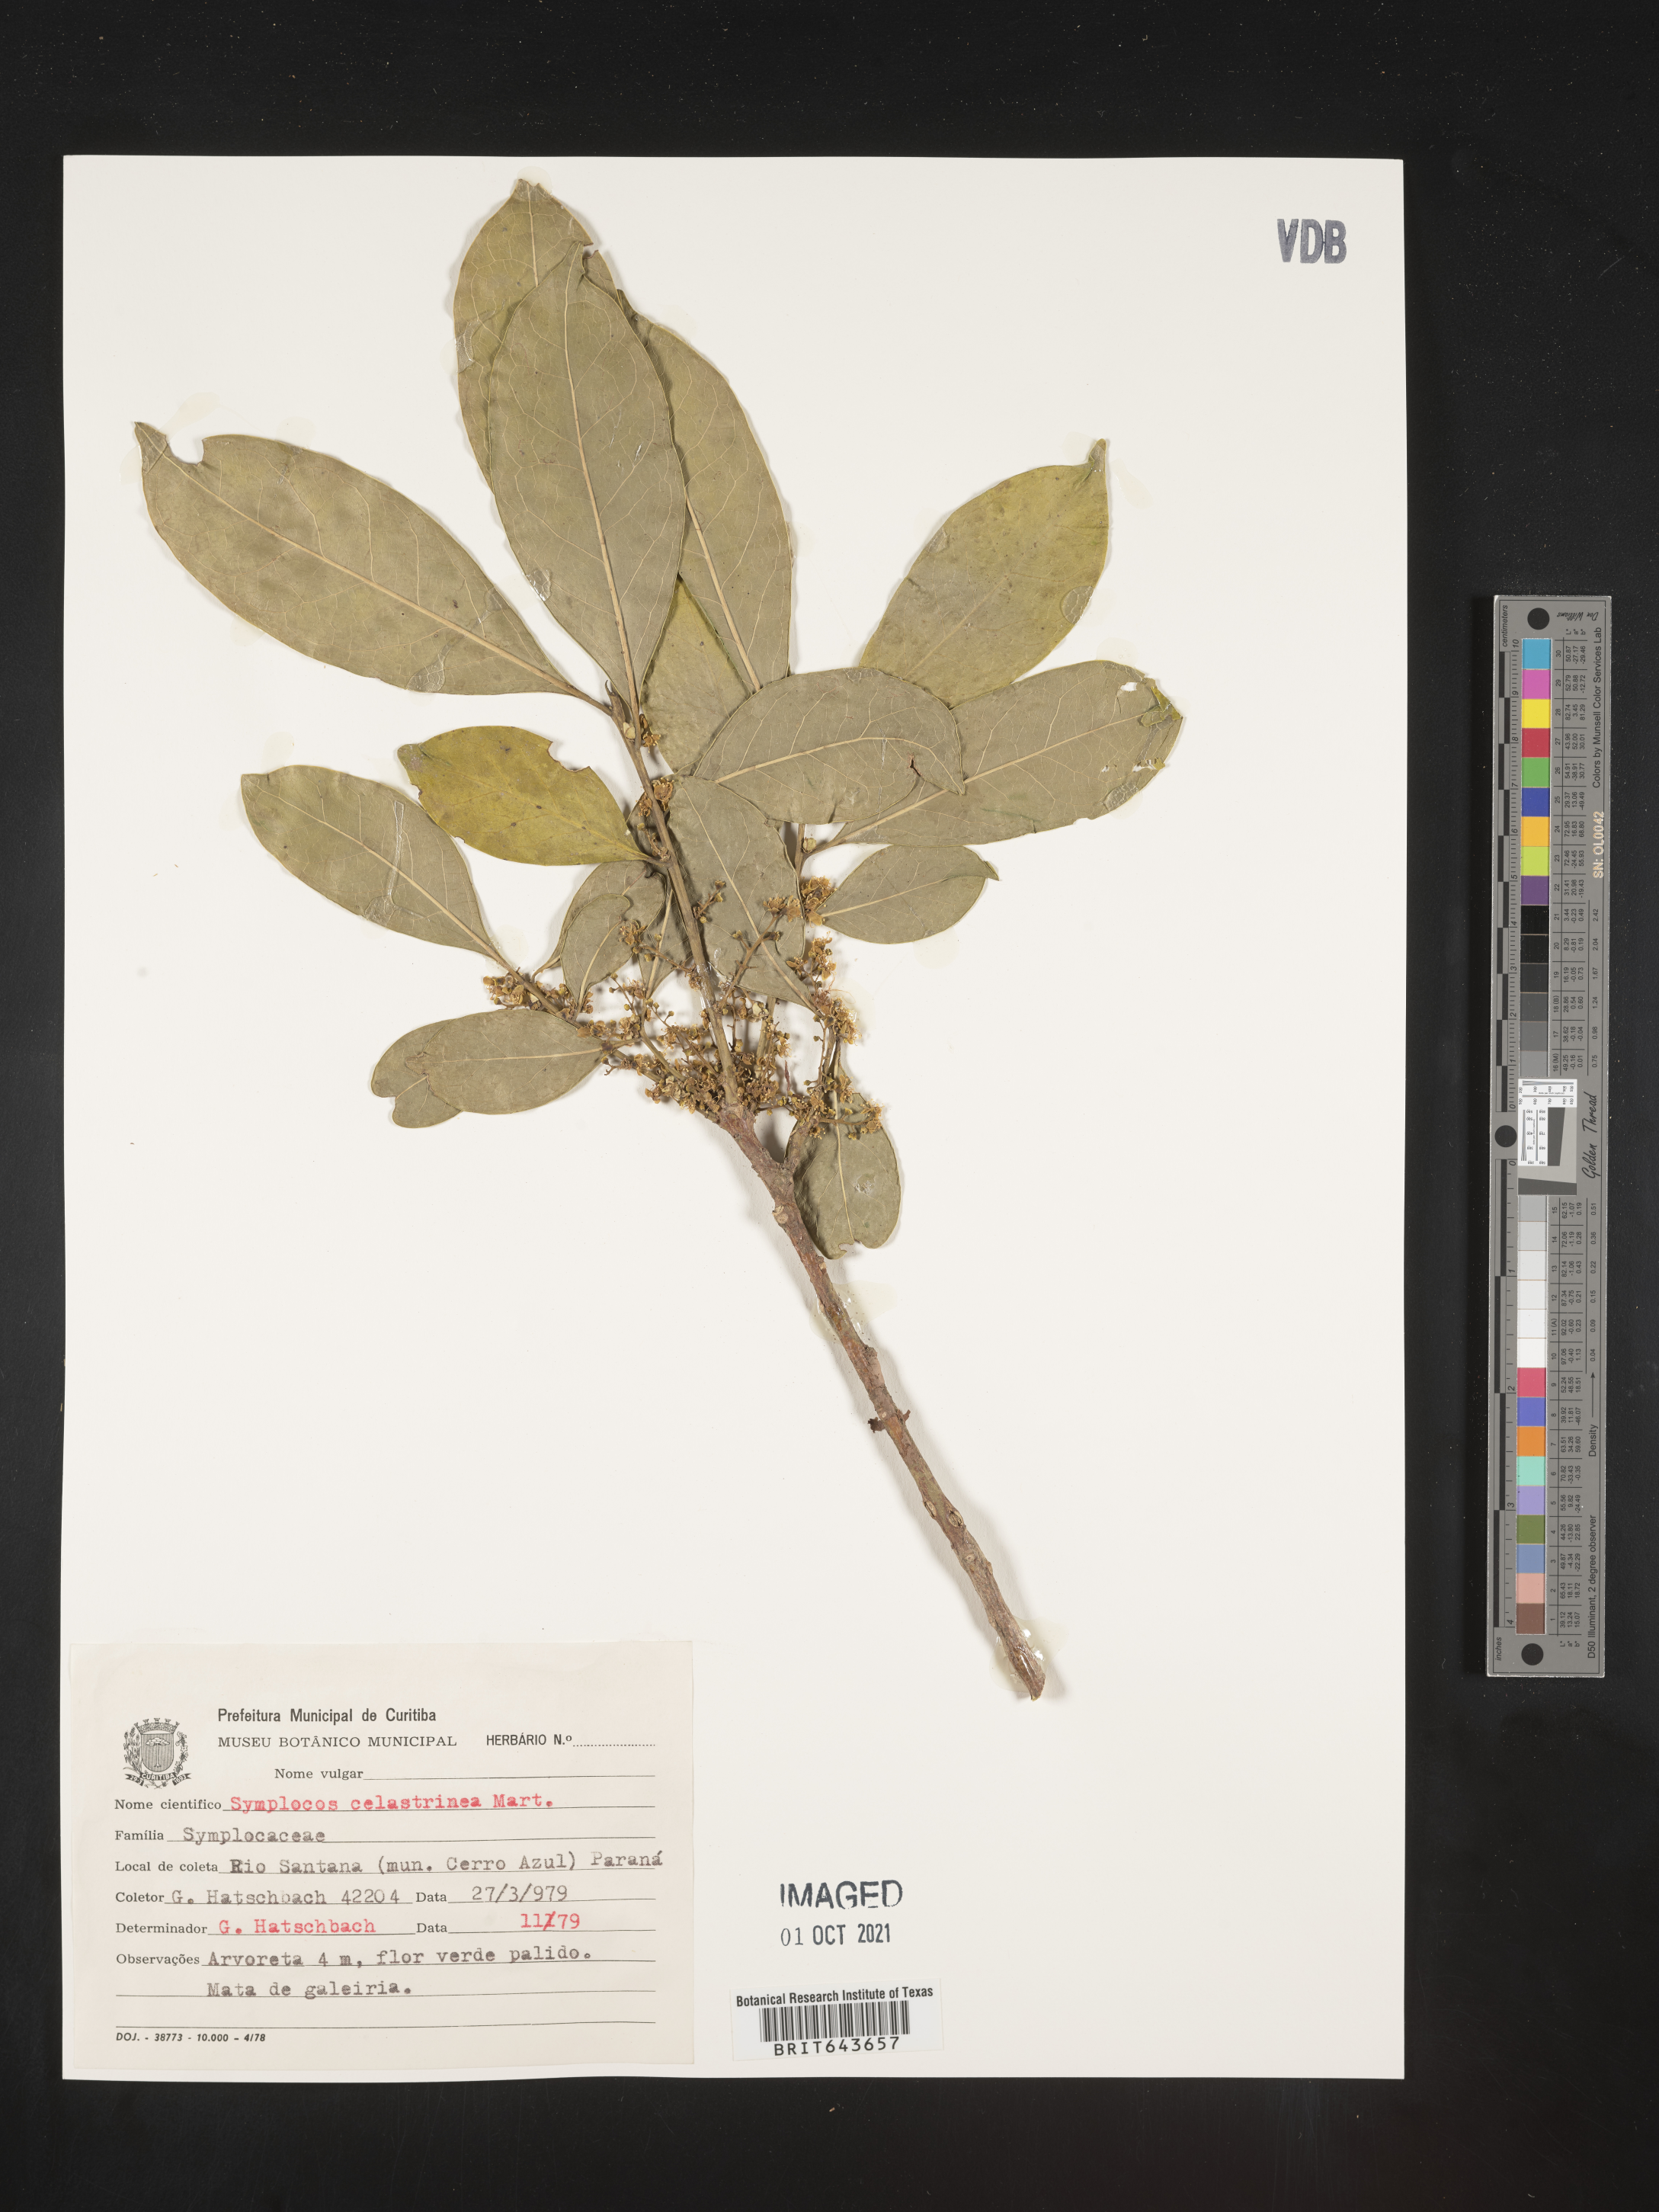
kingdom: Plantae
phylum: Tracheophyta
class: Magnoliopsida
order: Ericales
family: Symplocaceae
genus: Symplocos
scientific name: Symplocos
